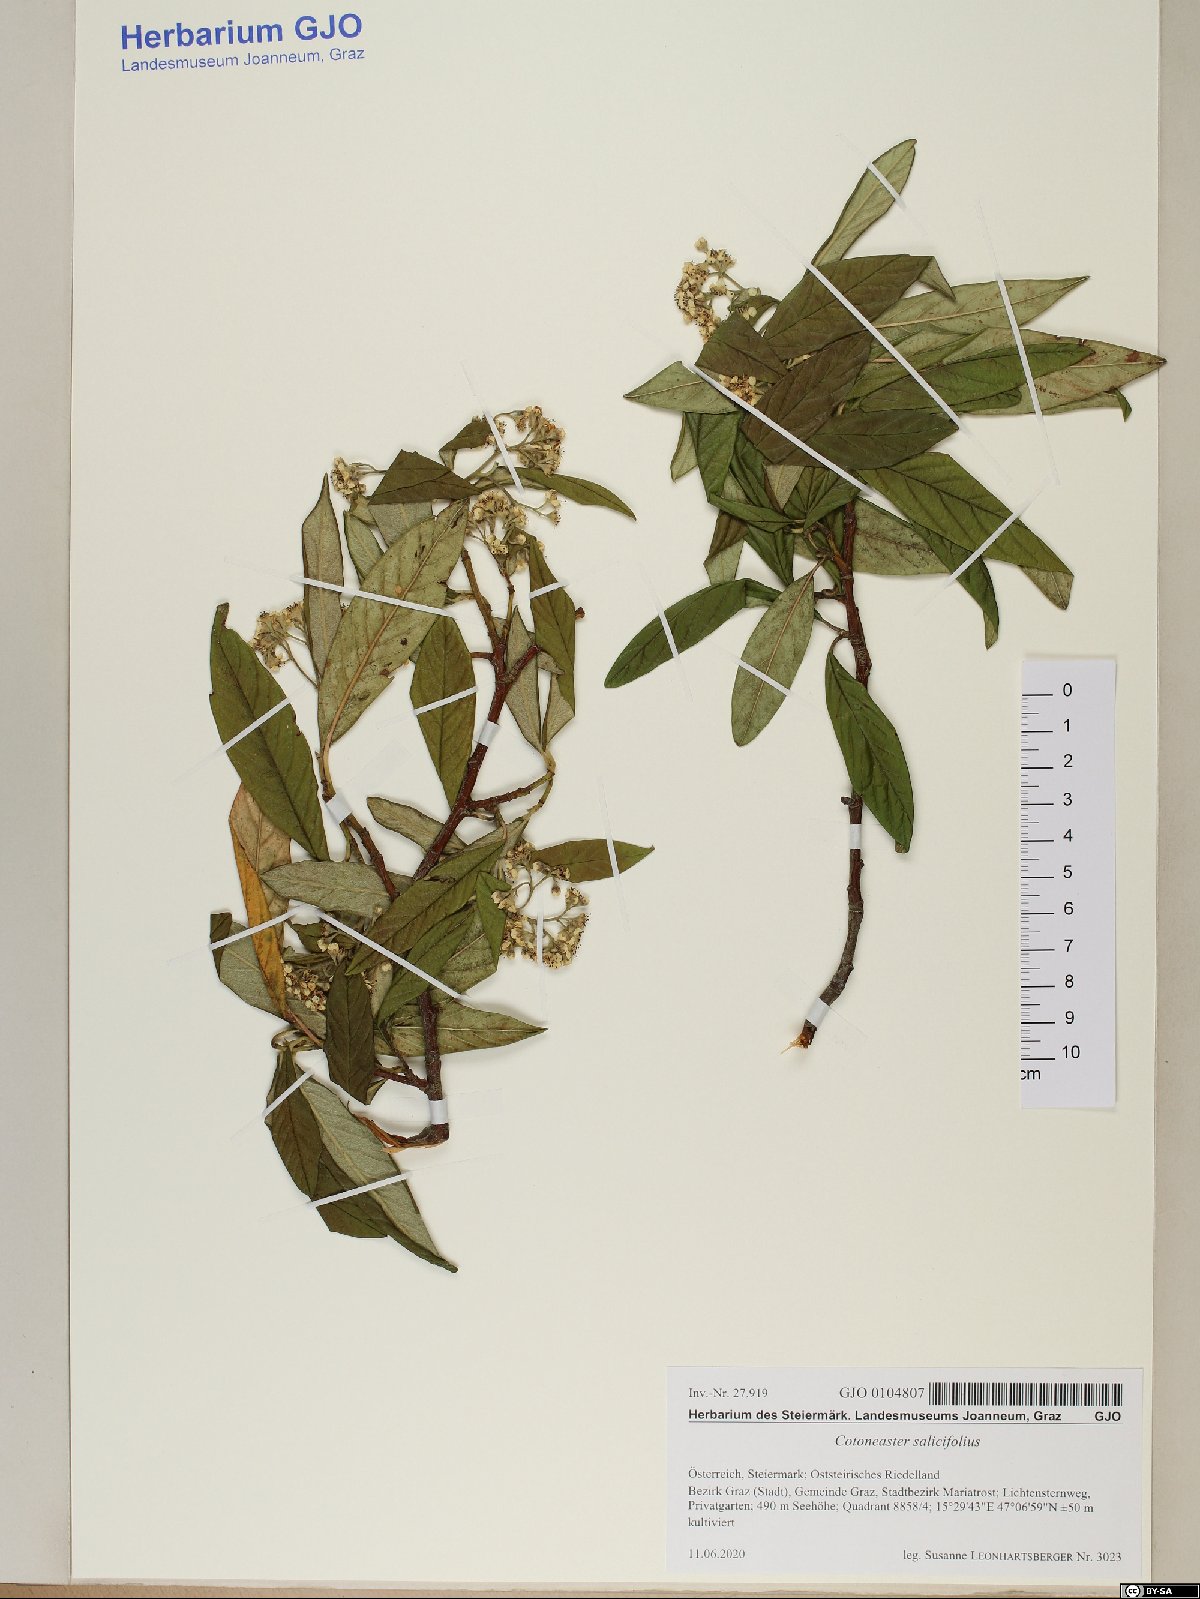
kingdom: Plantae
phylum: Tracheophyta
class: Magnoliopsida
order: Rosales
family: Rosaceae
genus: Cotoneaster
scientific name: Cotoneaster salicifolius
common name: Willow-leaved cotoneaster
